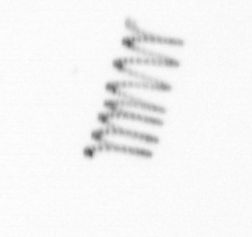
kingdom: Chromista
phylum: Ochrophyta
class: Bacillariophyceae
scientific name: Bacillariophyceae
